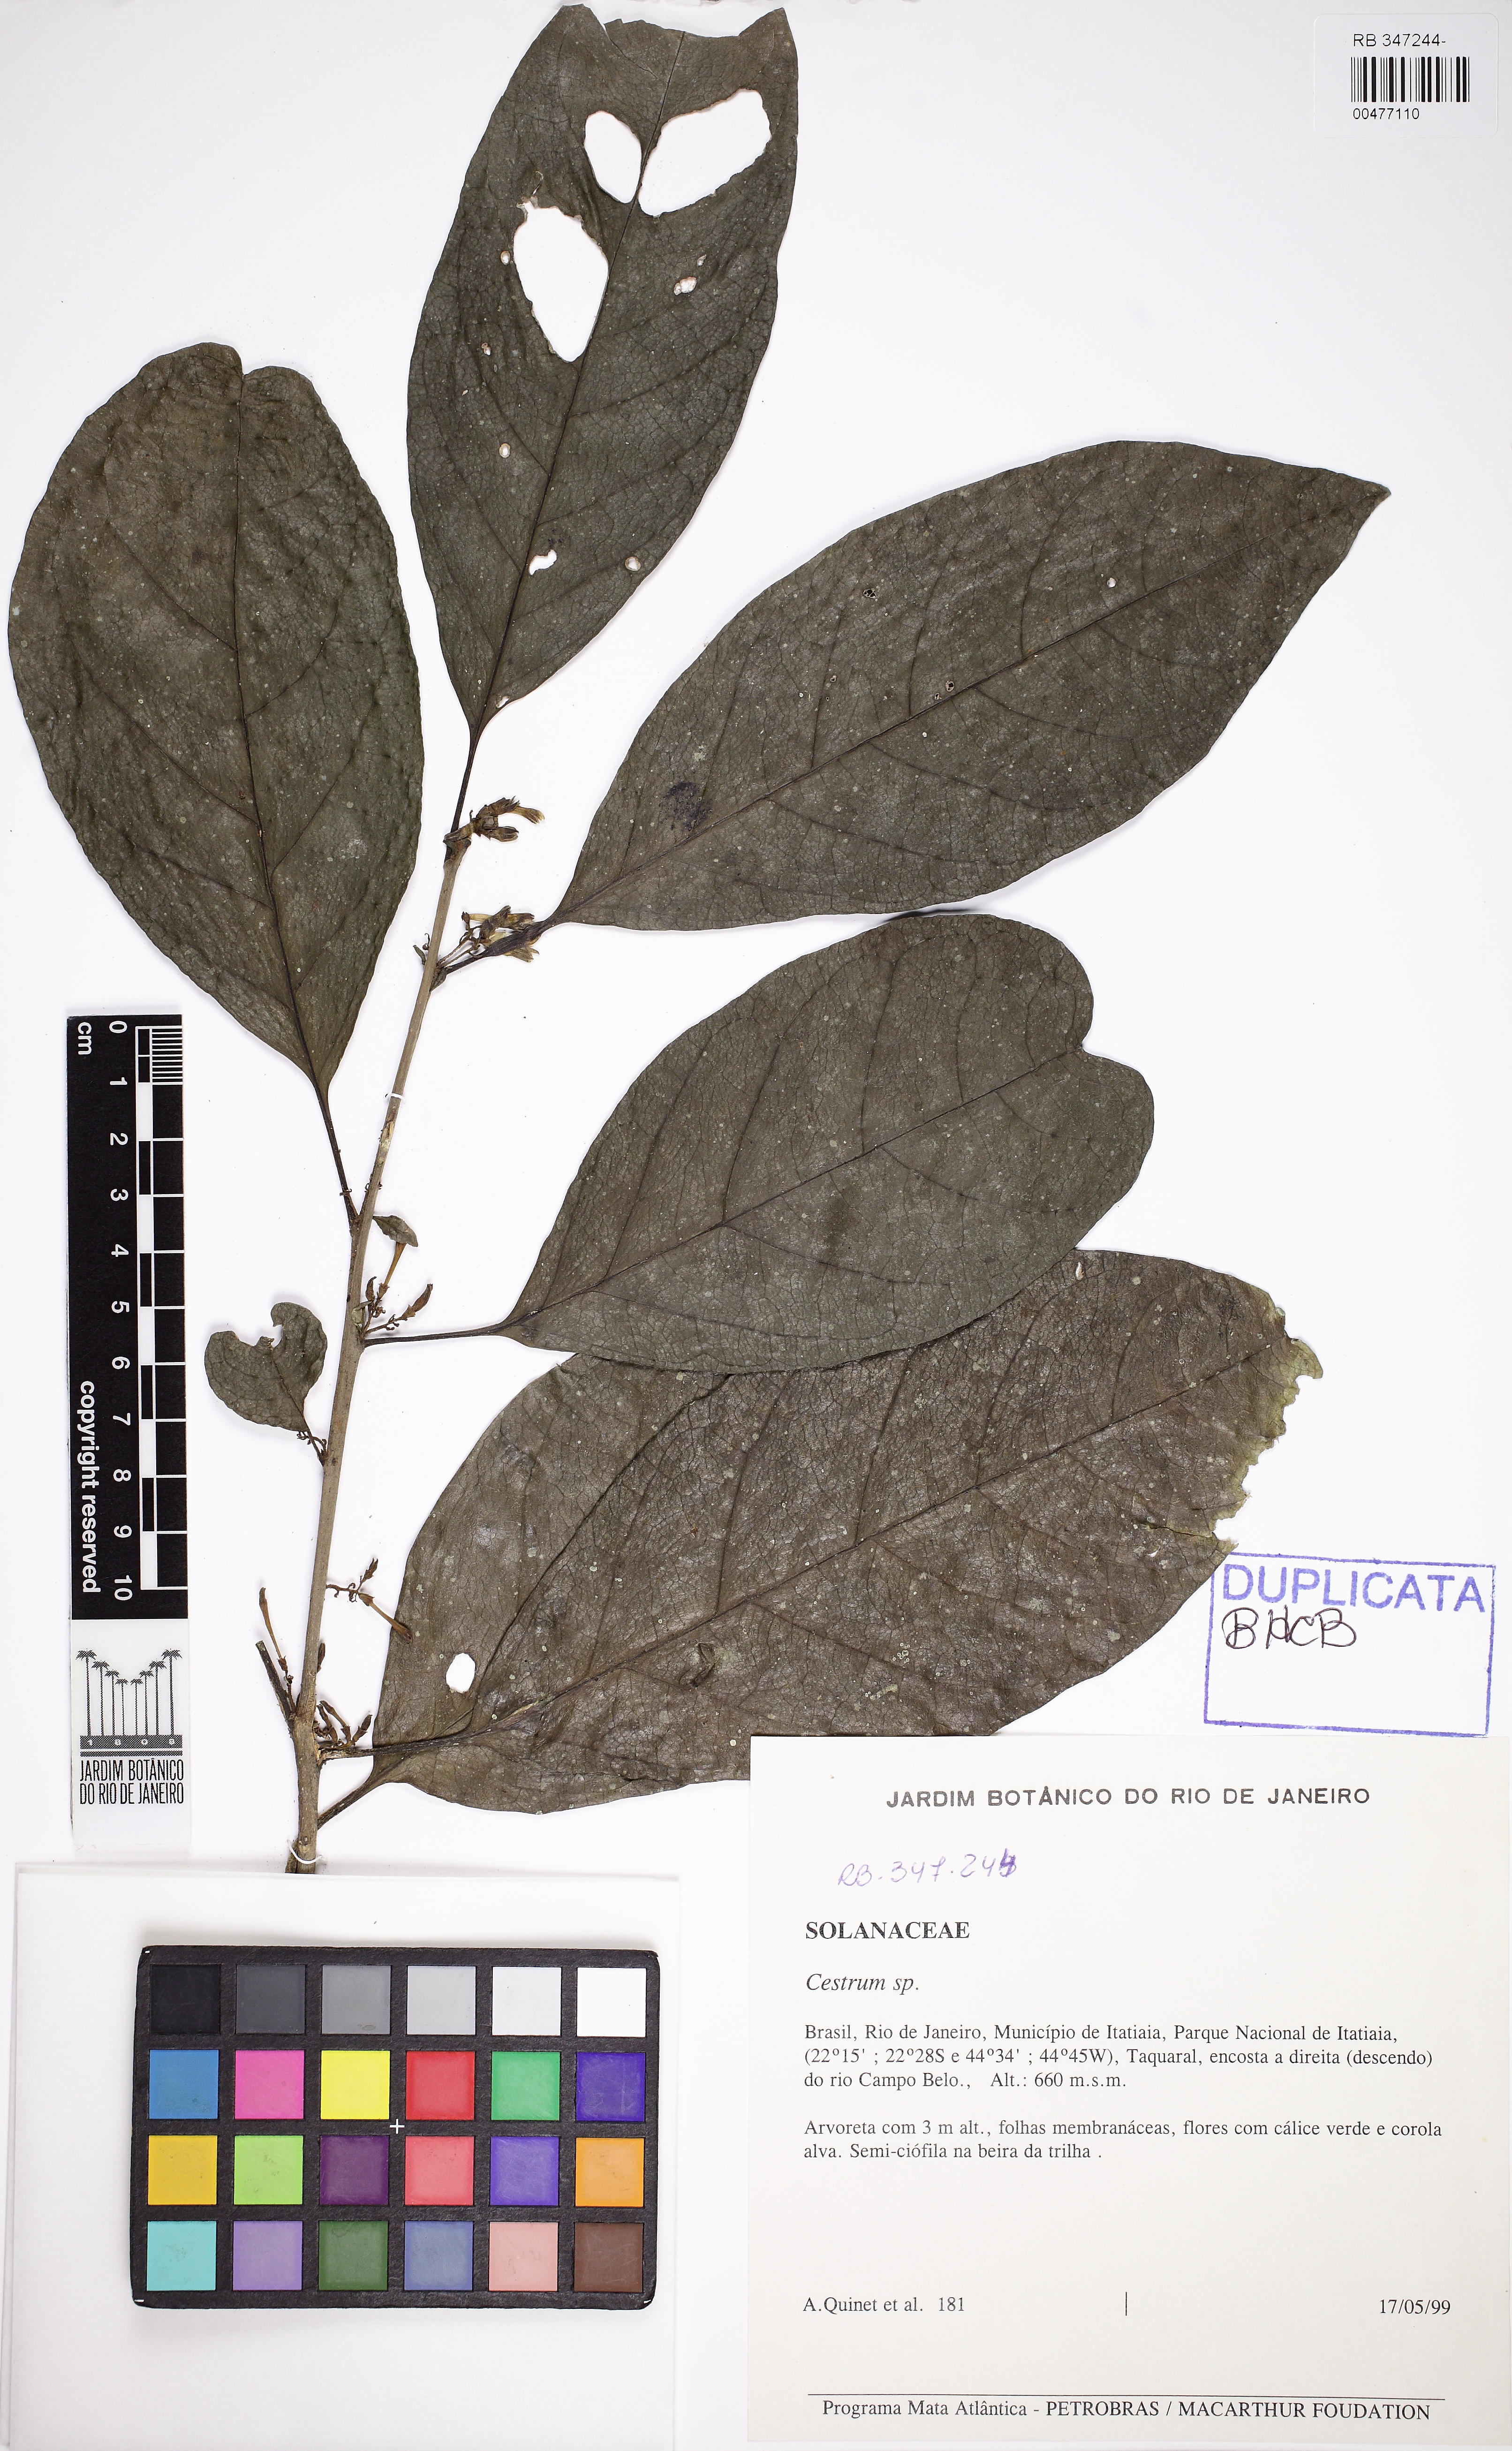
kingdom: Plantae
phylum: Tracheophyta
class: Magnoliopsida
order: Solanales
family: Solanaceae
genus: Cestrum
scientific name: Cestrum
